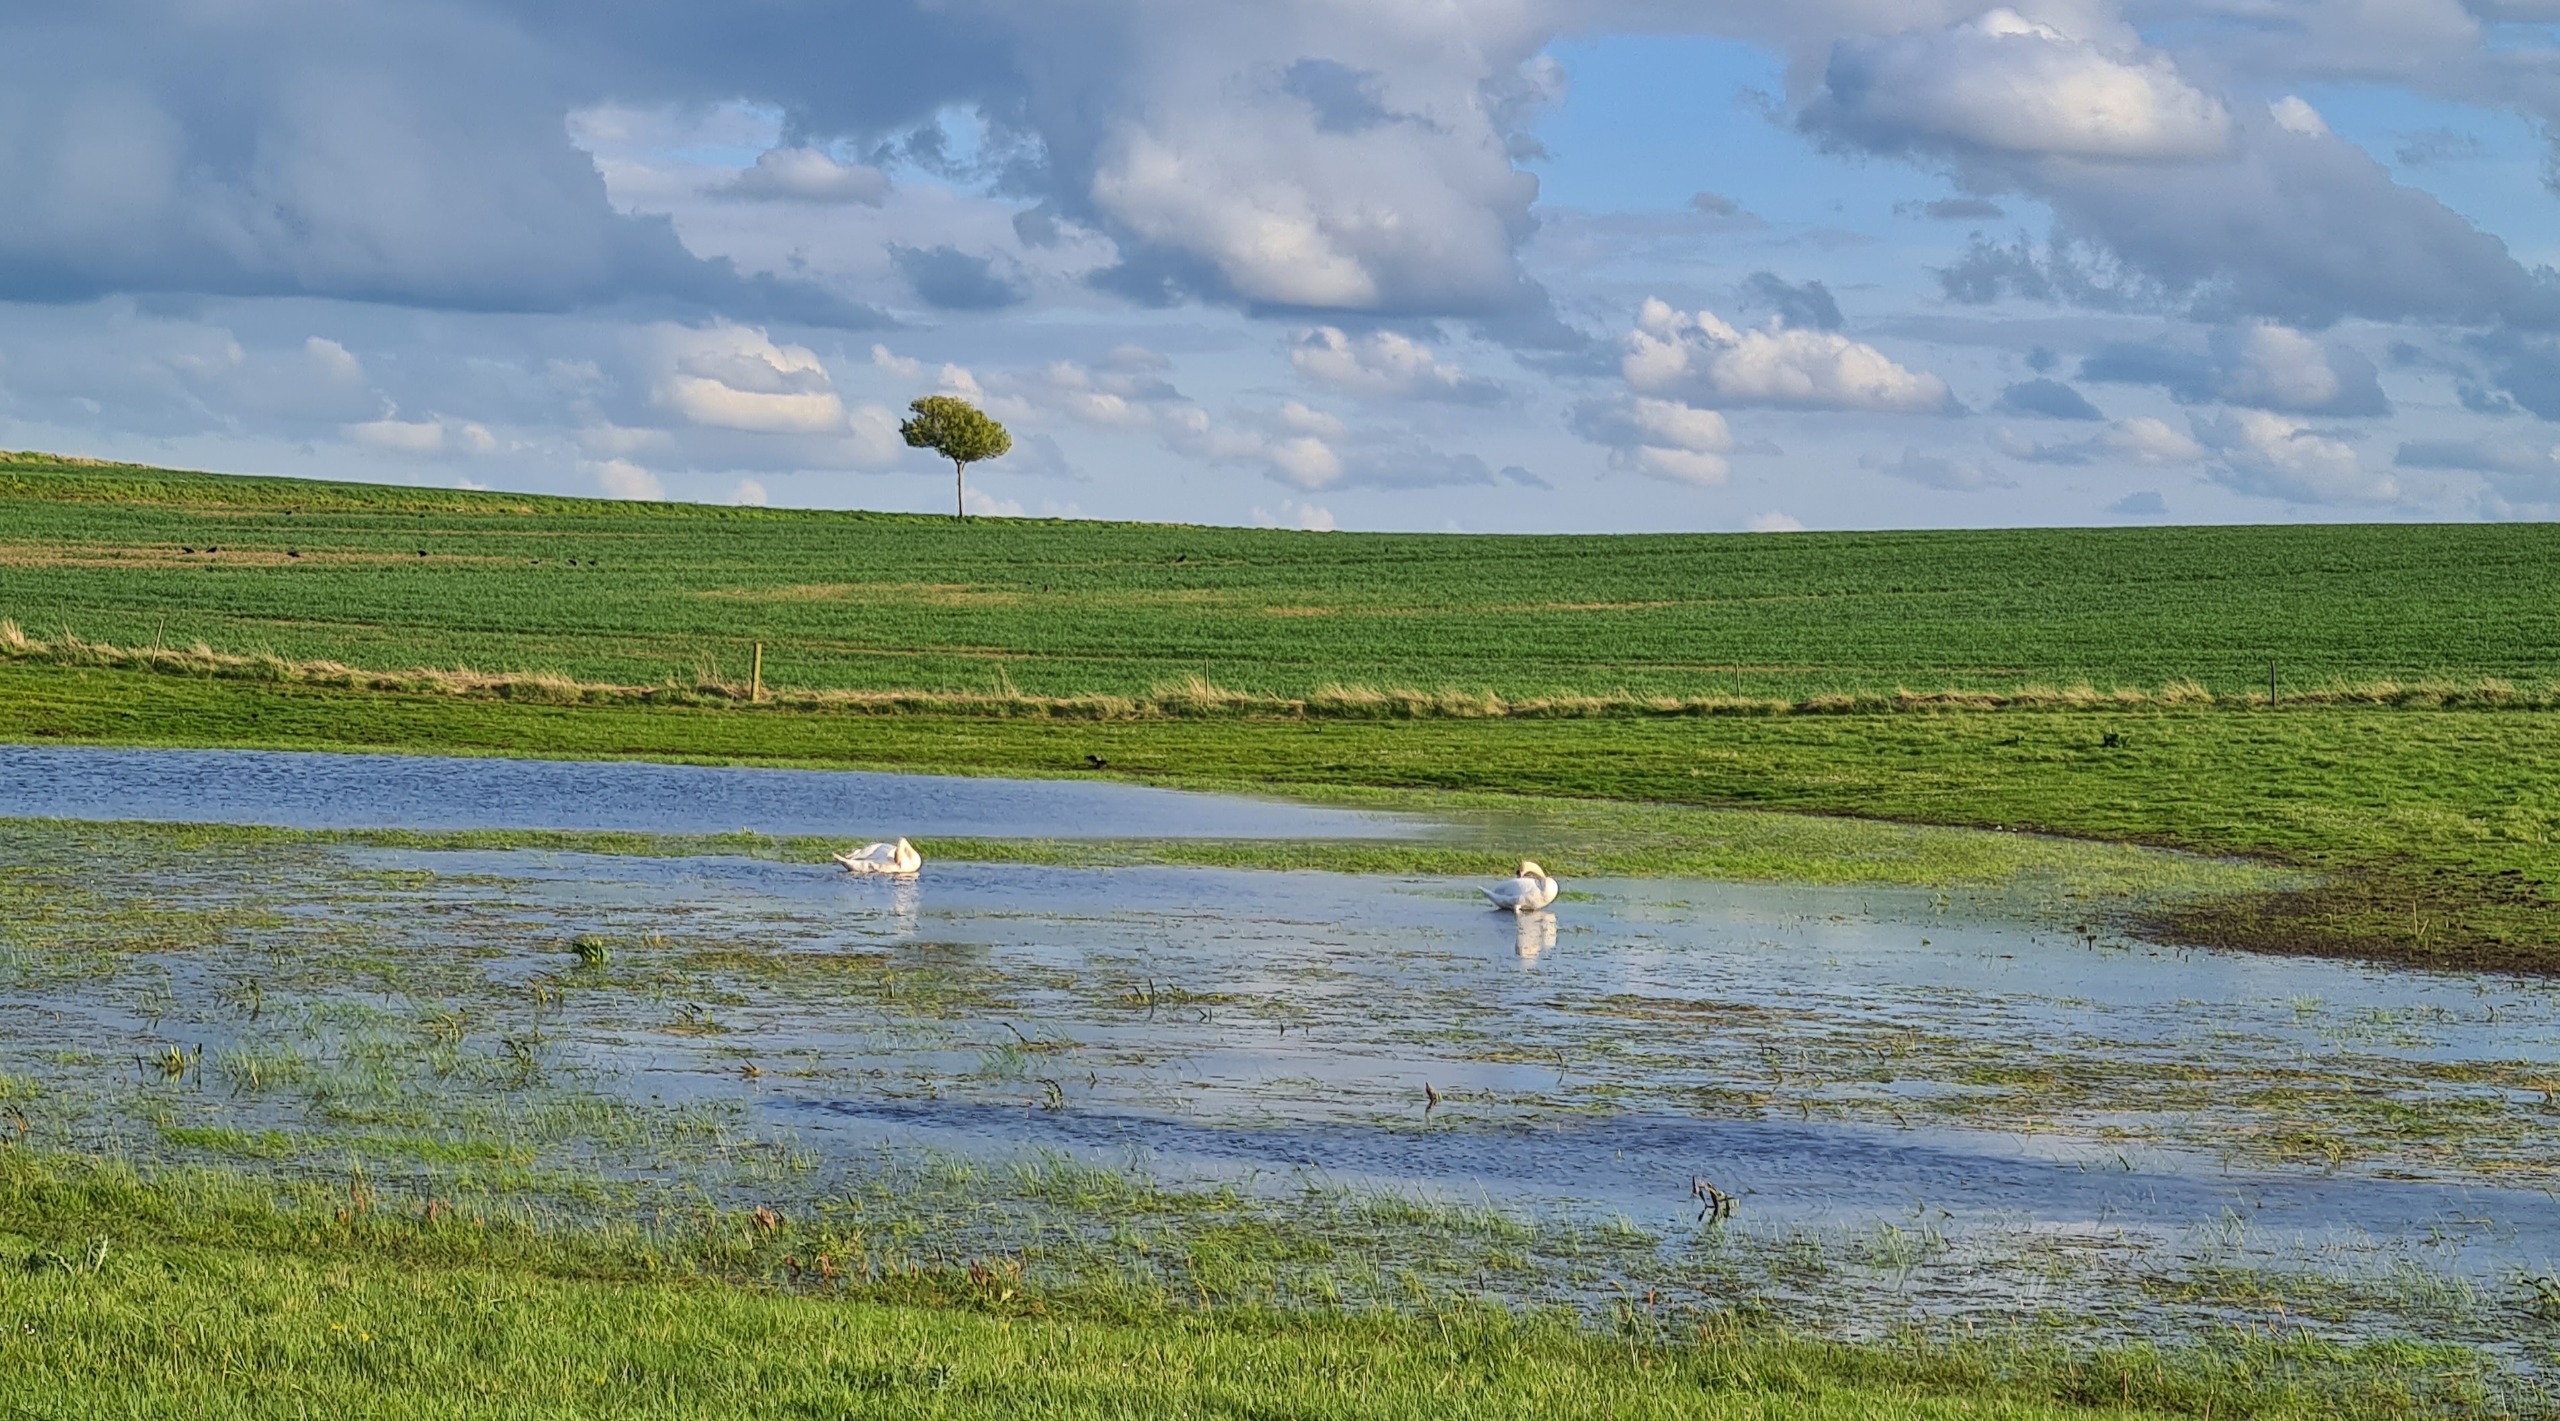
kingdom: Animalia
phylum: Chordata
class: Aves
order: Anseriformes
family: Anatidae
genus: Cygnus
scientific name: Cygnus olor
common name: Knopsvane
